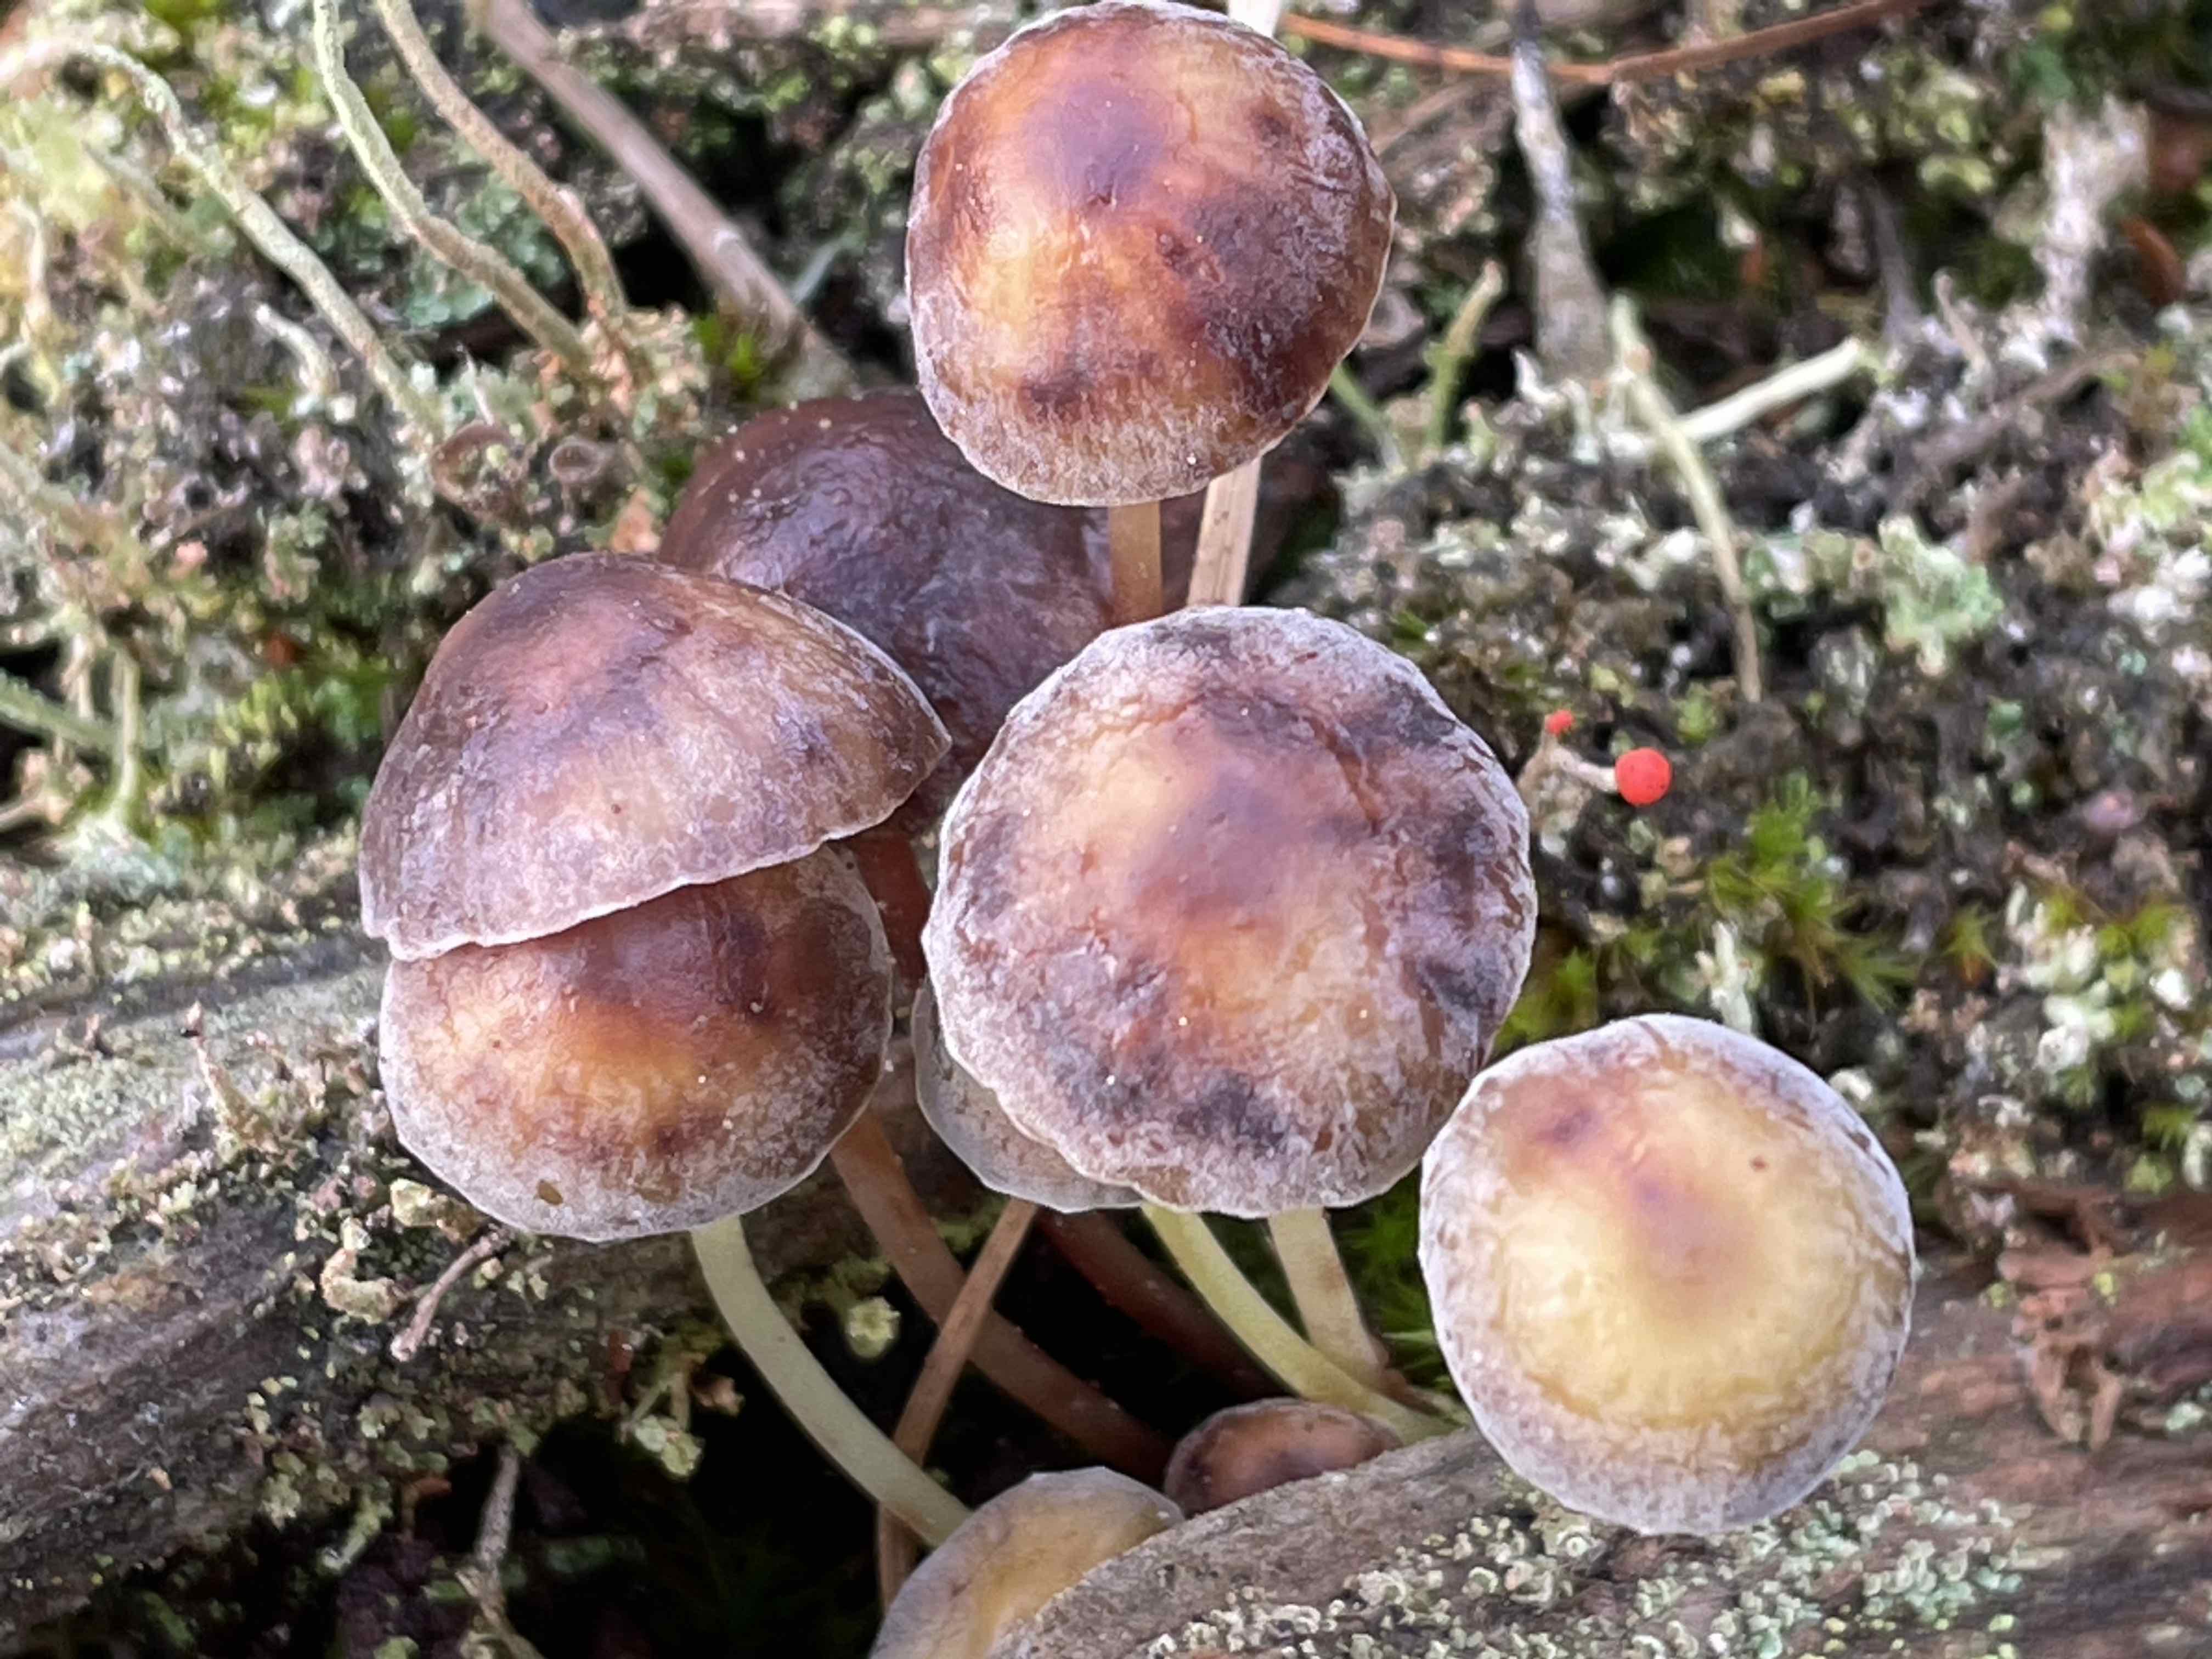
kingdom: Fungi
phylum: Basidiomycota
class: Agaricomycetes
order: Agaricales
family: Mycenaceae
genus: Mycena
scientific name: Mycena epipterygia
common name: gulstokket huesvamp
